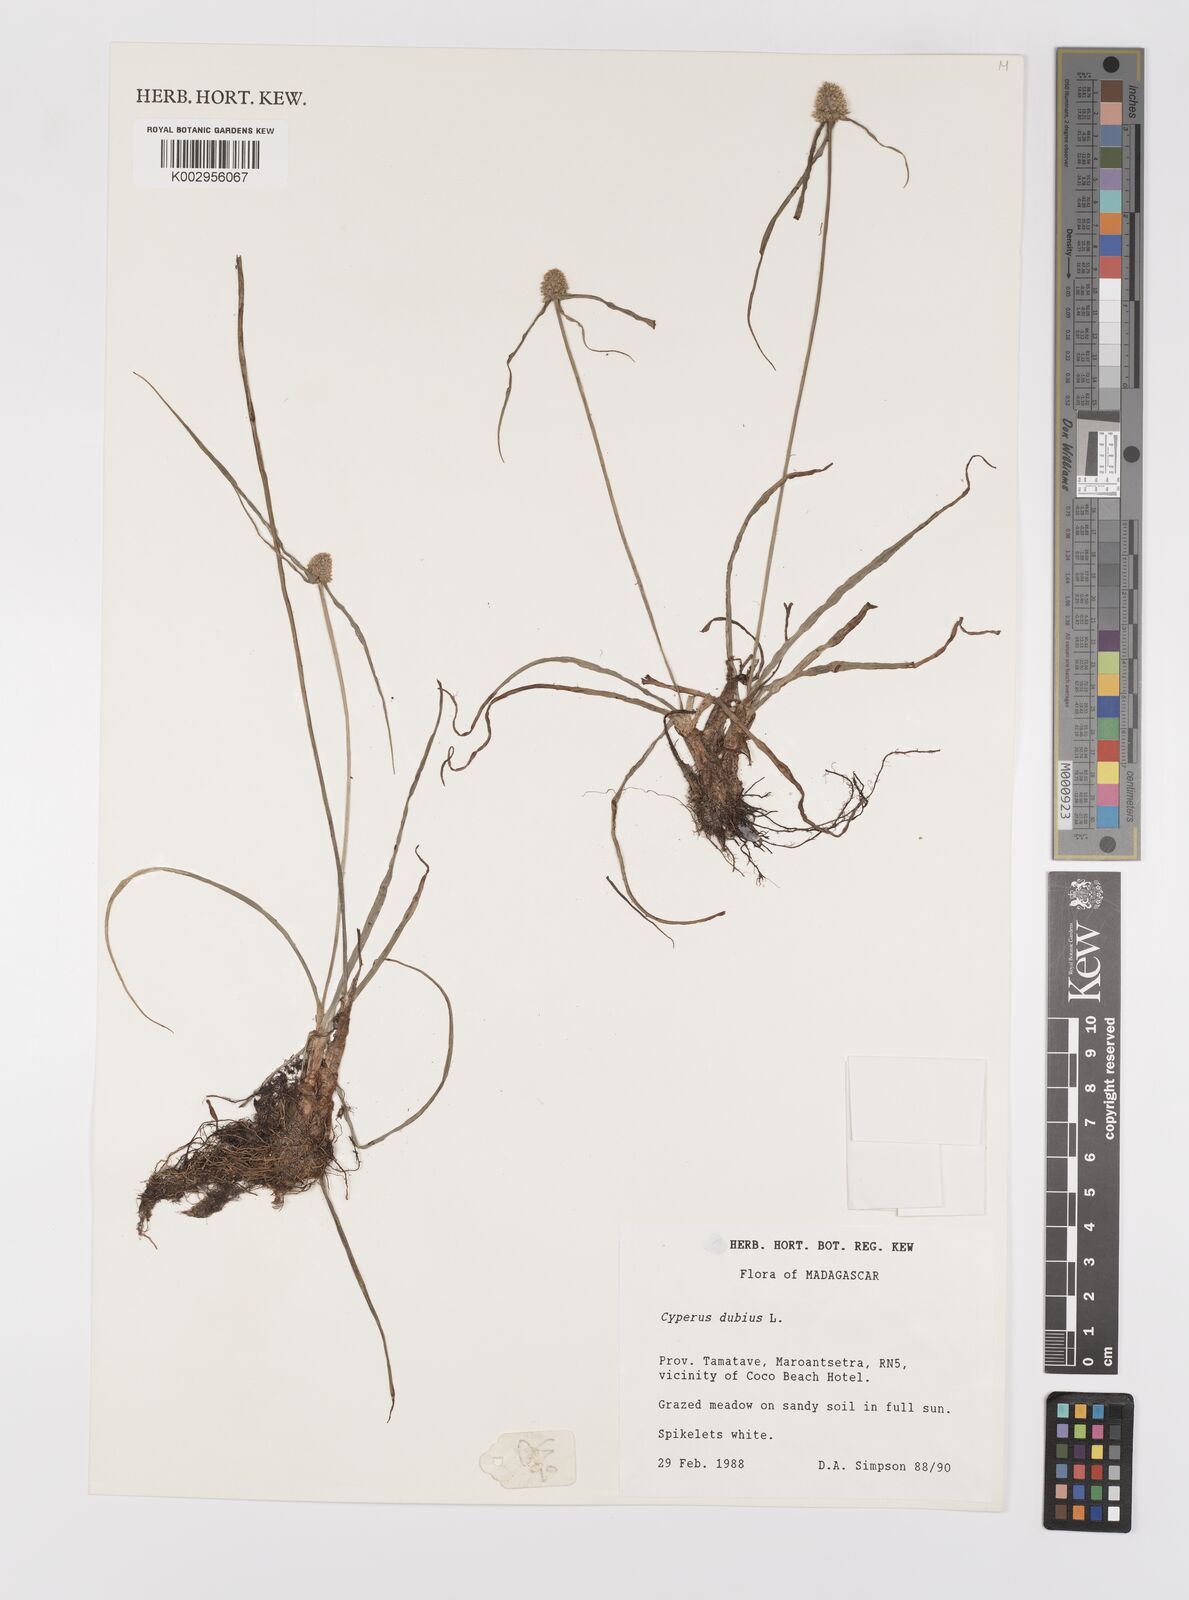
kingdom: Plantae
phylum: Tracheophyta
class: Liliopsida
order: Poales
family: Cyperaceae
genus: Cyperus
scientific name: Cyperus dubius
